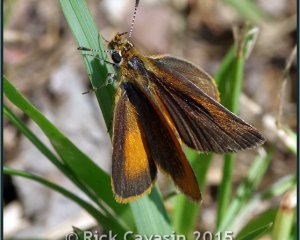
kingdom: Animalia
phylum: Arthropoda
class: Insecta
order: Lepidoptera
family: Hesperiidae
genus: Ancyloxypha
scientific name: Ancyloxypha numitor
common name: Least Skipper
